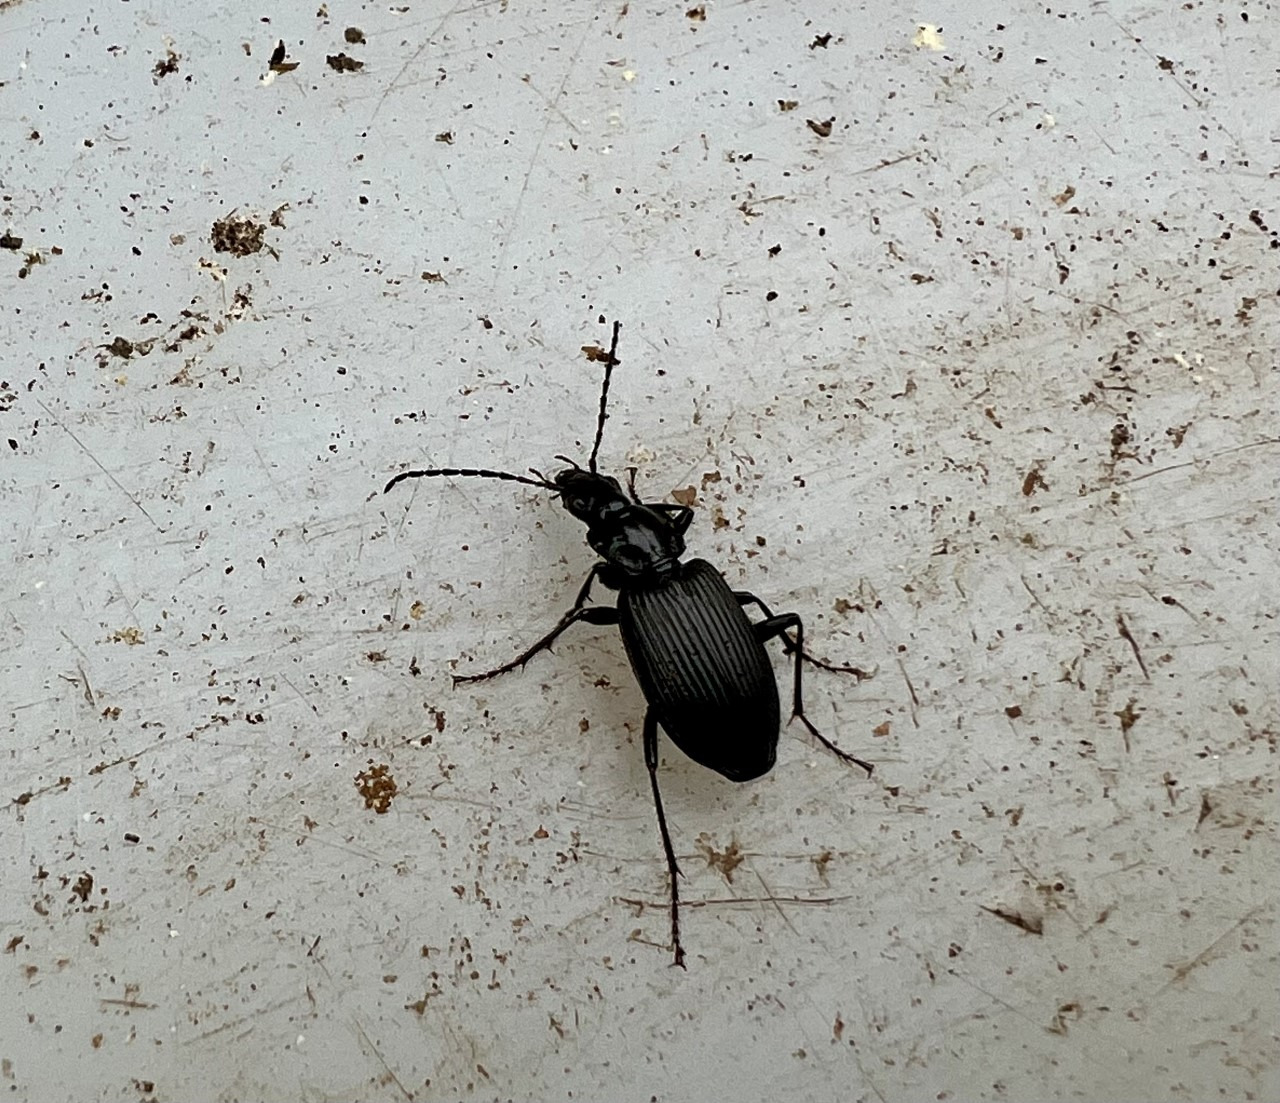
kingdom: Animalia
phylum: Arthropoda
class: Insecta
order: Coleoptera
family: Carabidae
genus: Platynus
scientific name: Platynus krynickii
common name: Skovmosekvikløber
